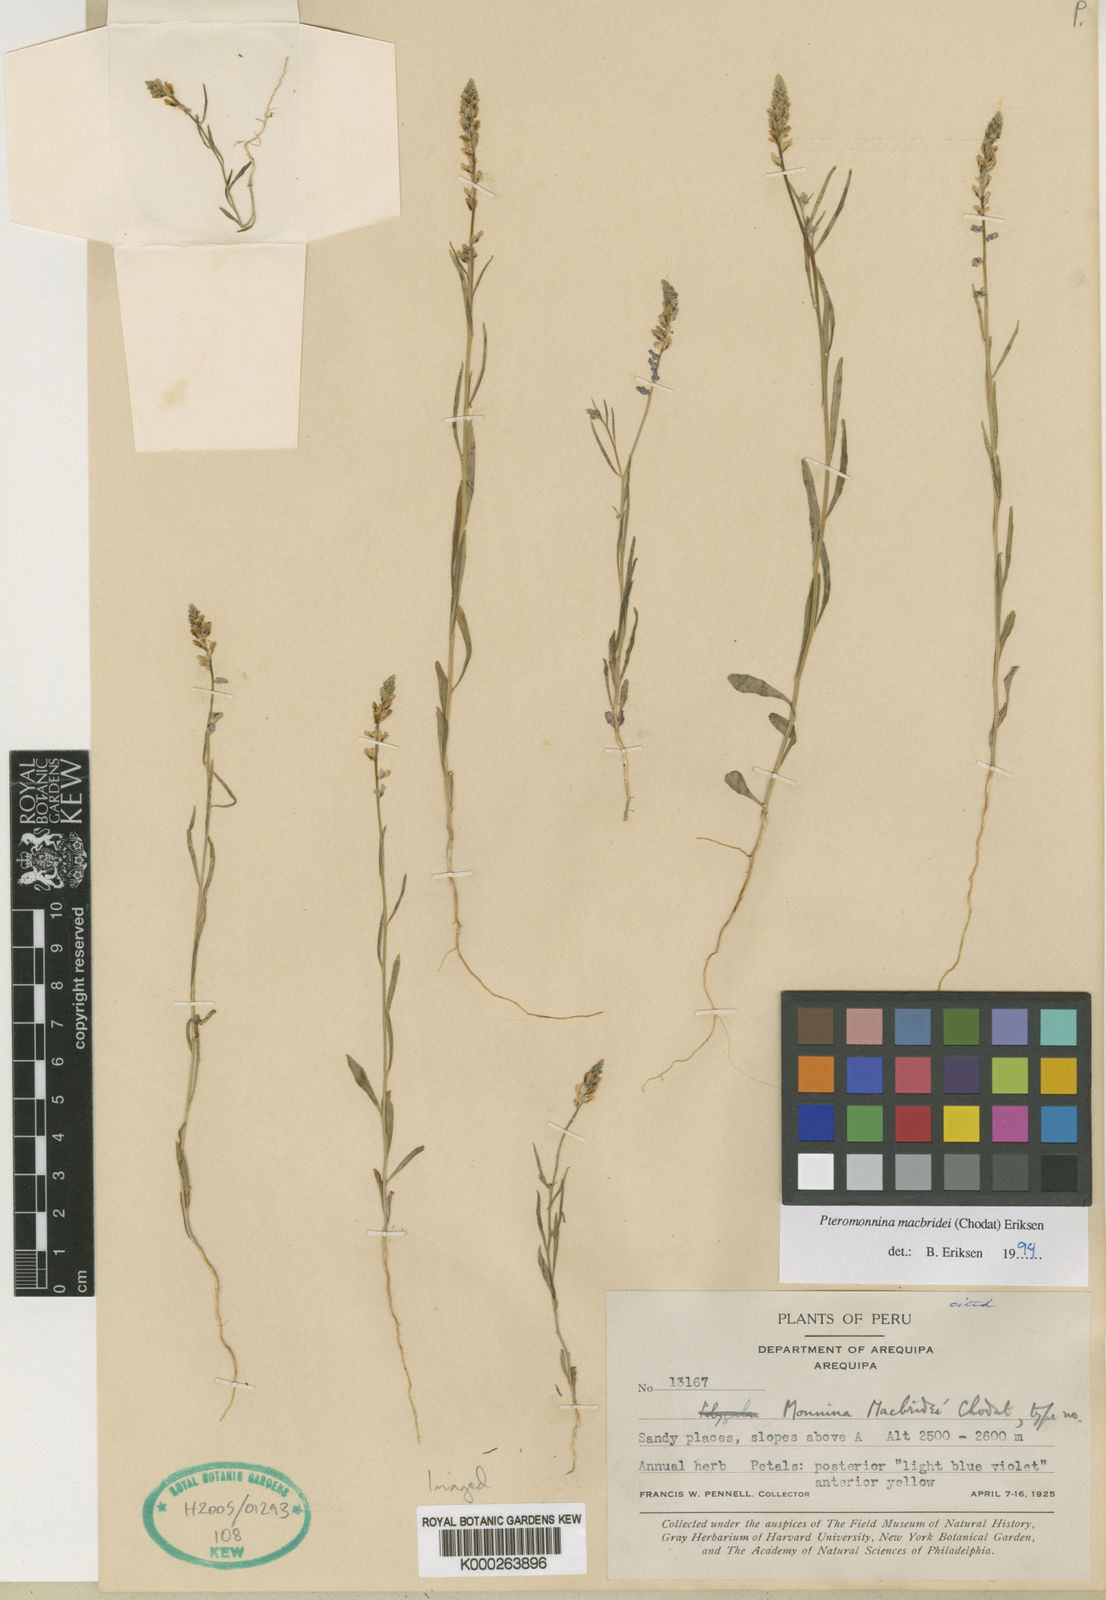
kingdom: Plantae
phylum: Tracheophyta
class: Magnoliopsida
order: Fabales
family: Polygalaceae
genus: Monnina
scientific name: Monnina
